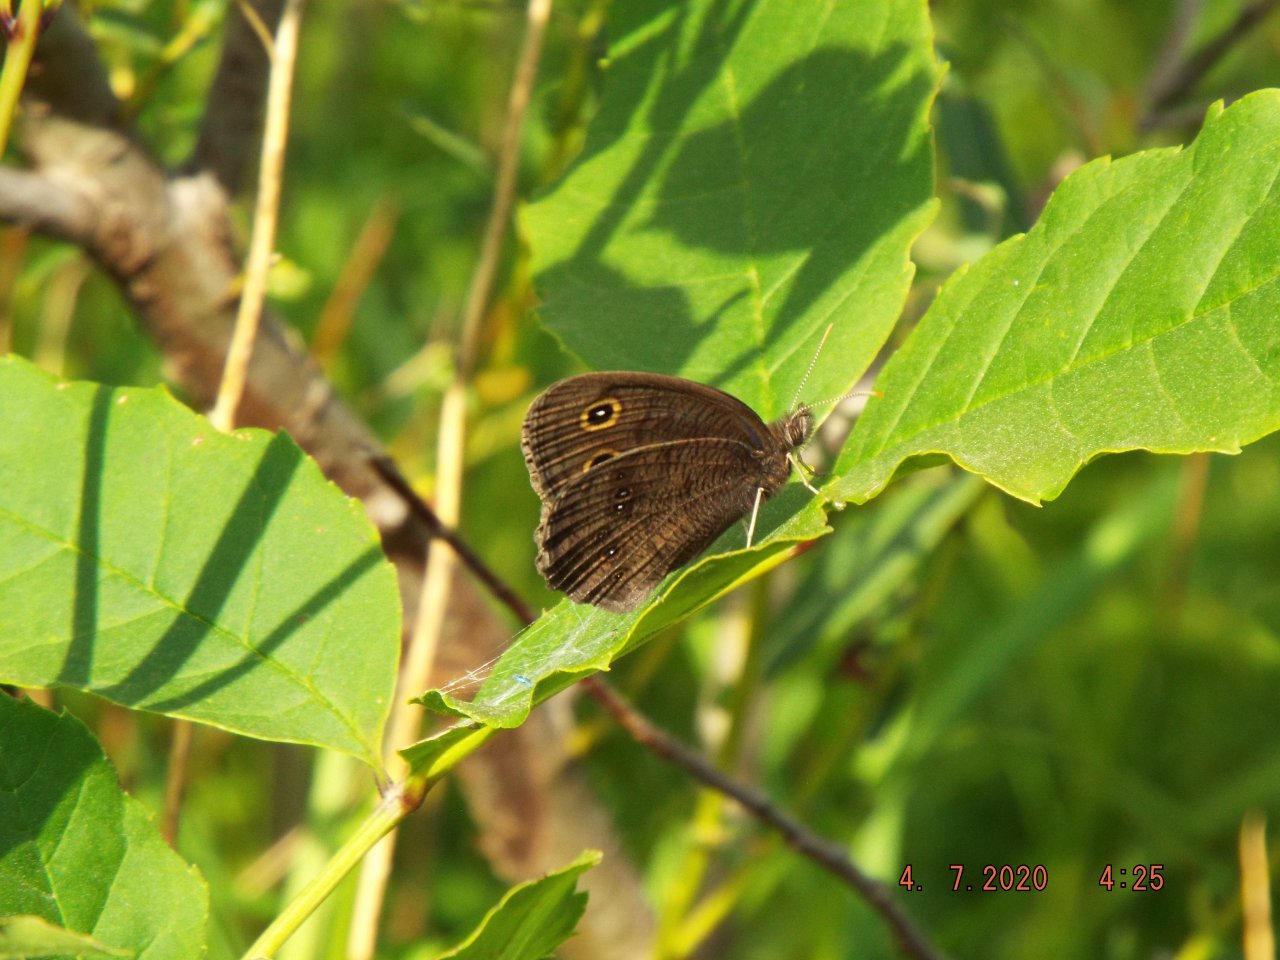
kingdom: Animalia
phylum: Arthropoda
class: Insecta
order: Lepidoptera
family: Nymphalidae
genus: Cercyonis
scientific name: Cercyonis pegala
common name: Common Wood-Nymph
